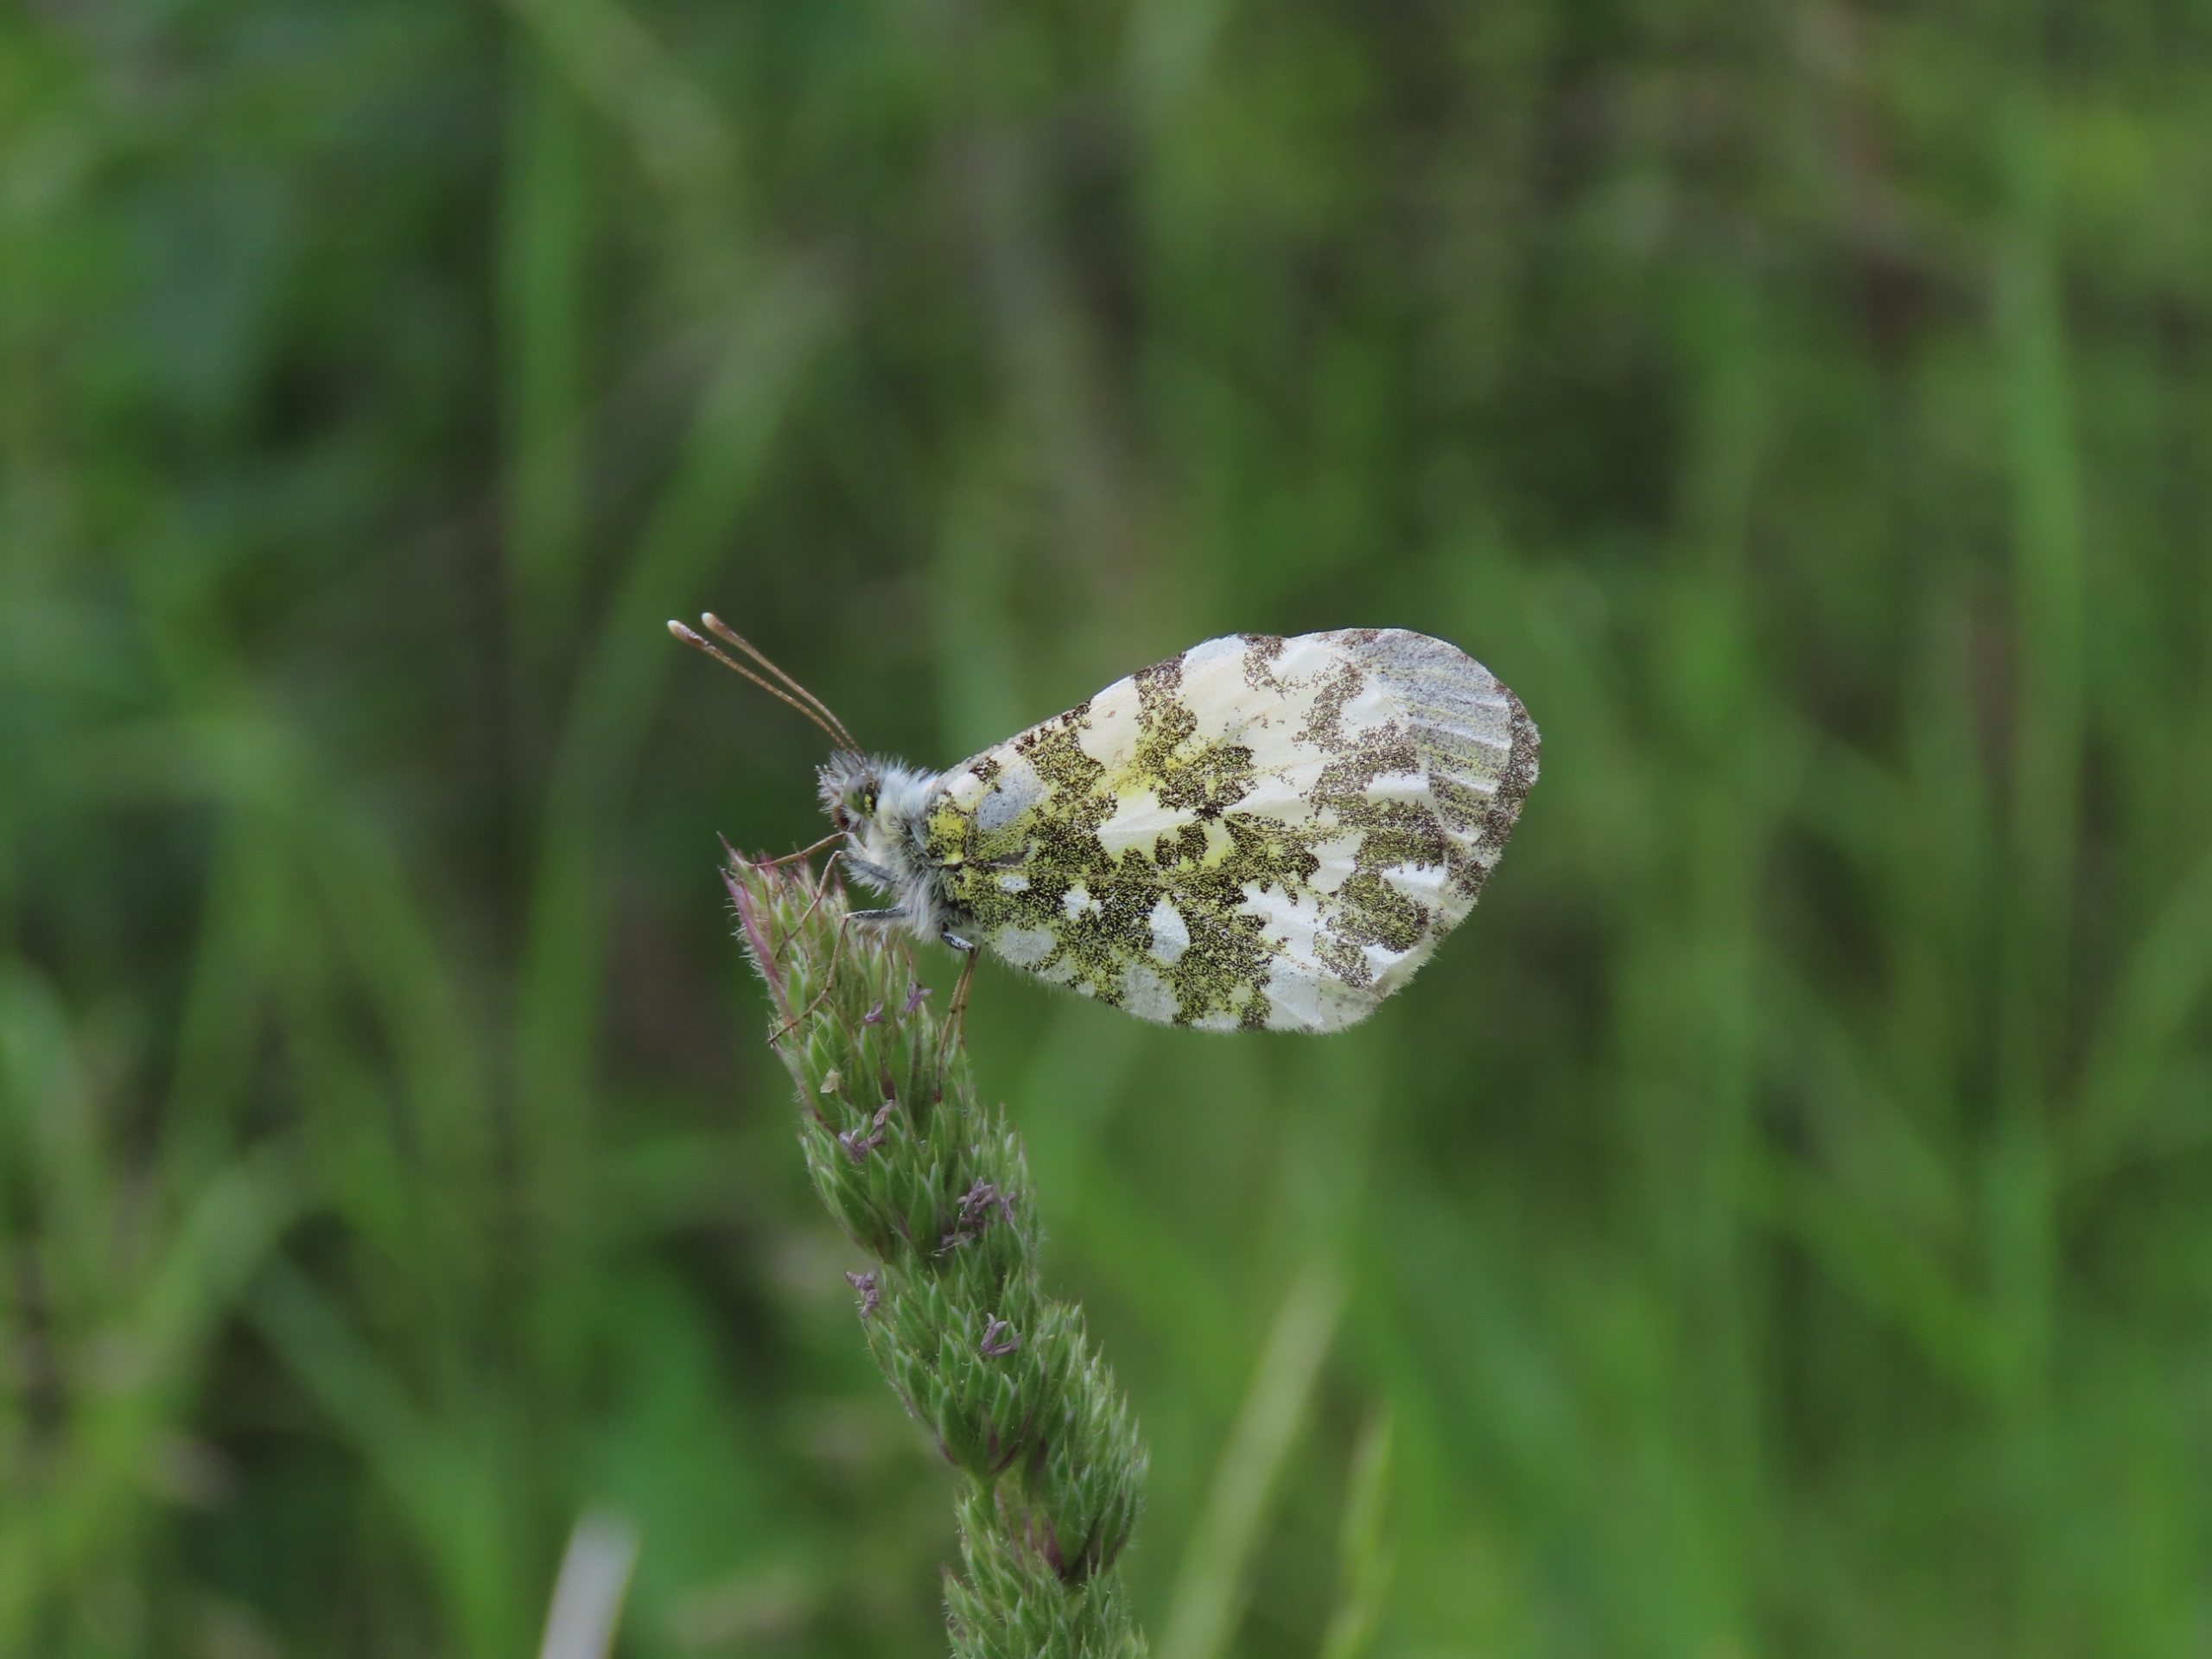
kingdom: Animalia
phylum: Arthropoda
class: Insecta
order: Lepidoptera
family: Pieridae
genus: Anthocharis
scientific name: Anthocharis cardamines
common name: Aurora
